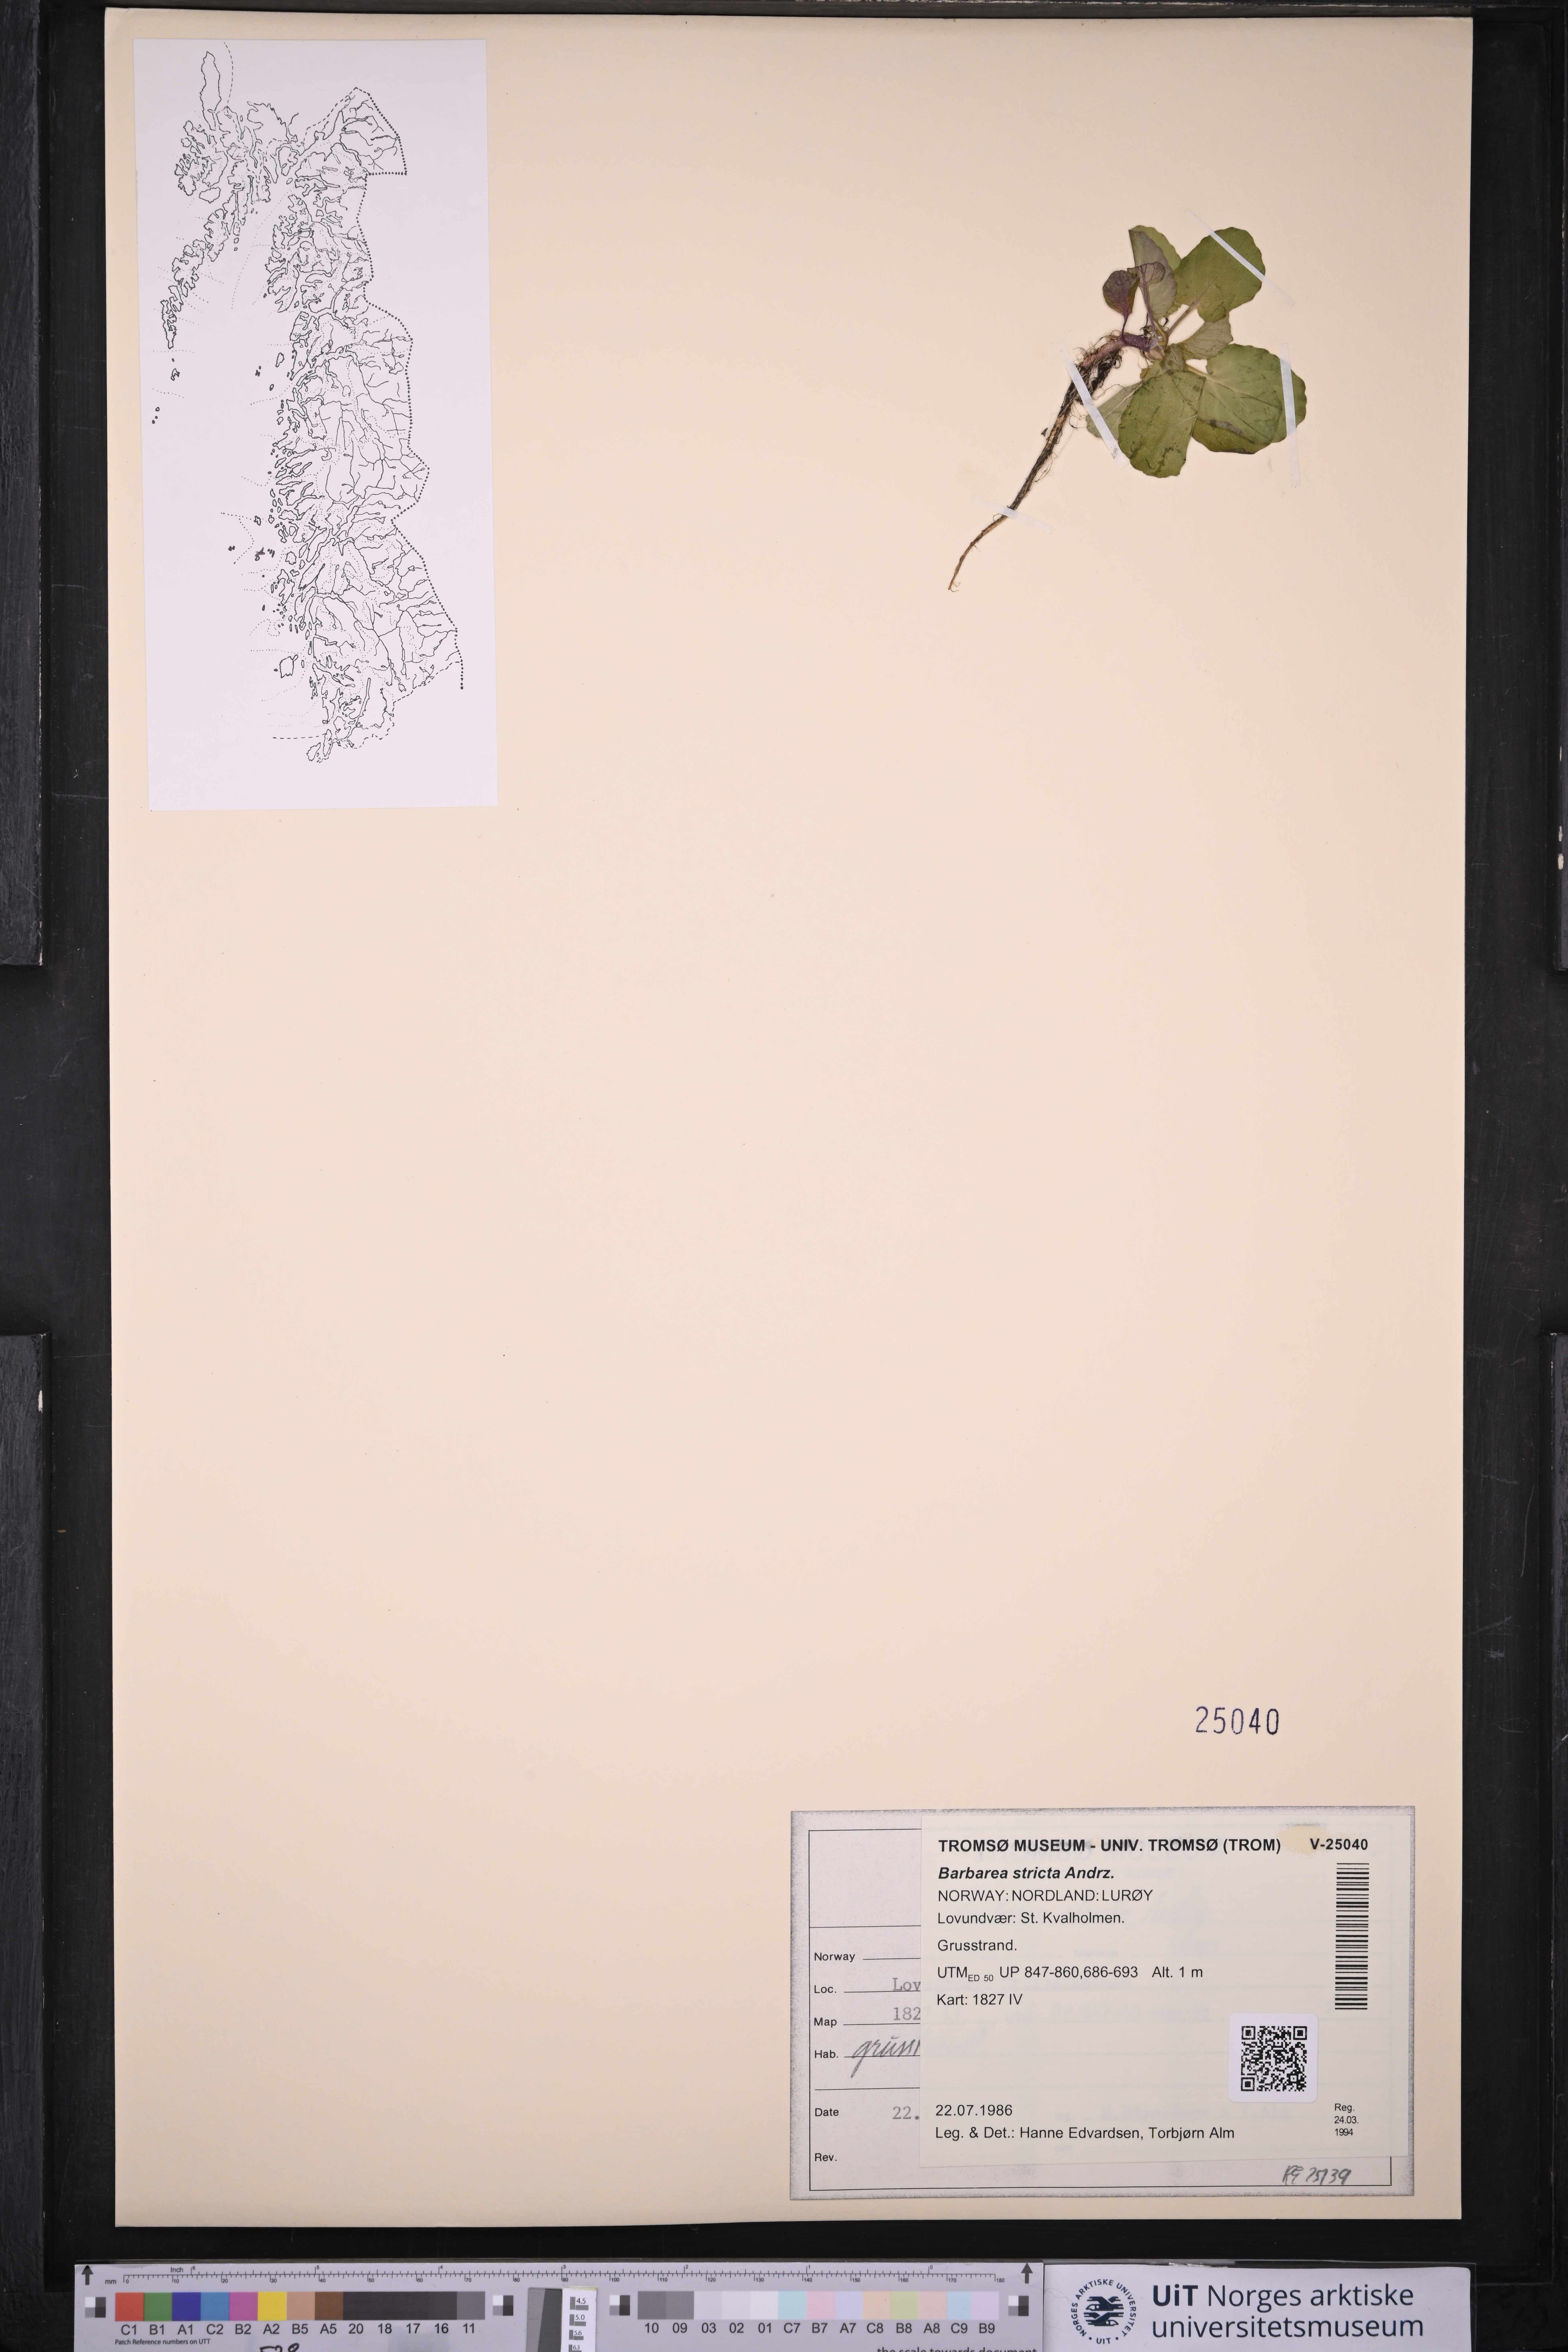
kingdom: Plantae
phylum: Tracheophyta
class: Magnoliopsida
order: Brassicales
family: Brassicaceae
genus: Barbarea
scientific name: Barbarea stricta
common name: Small-flowered winter-cress
